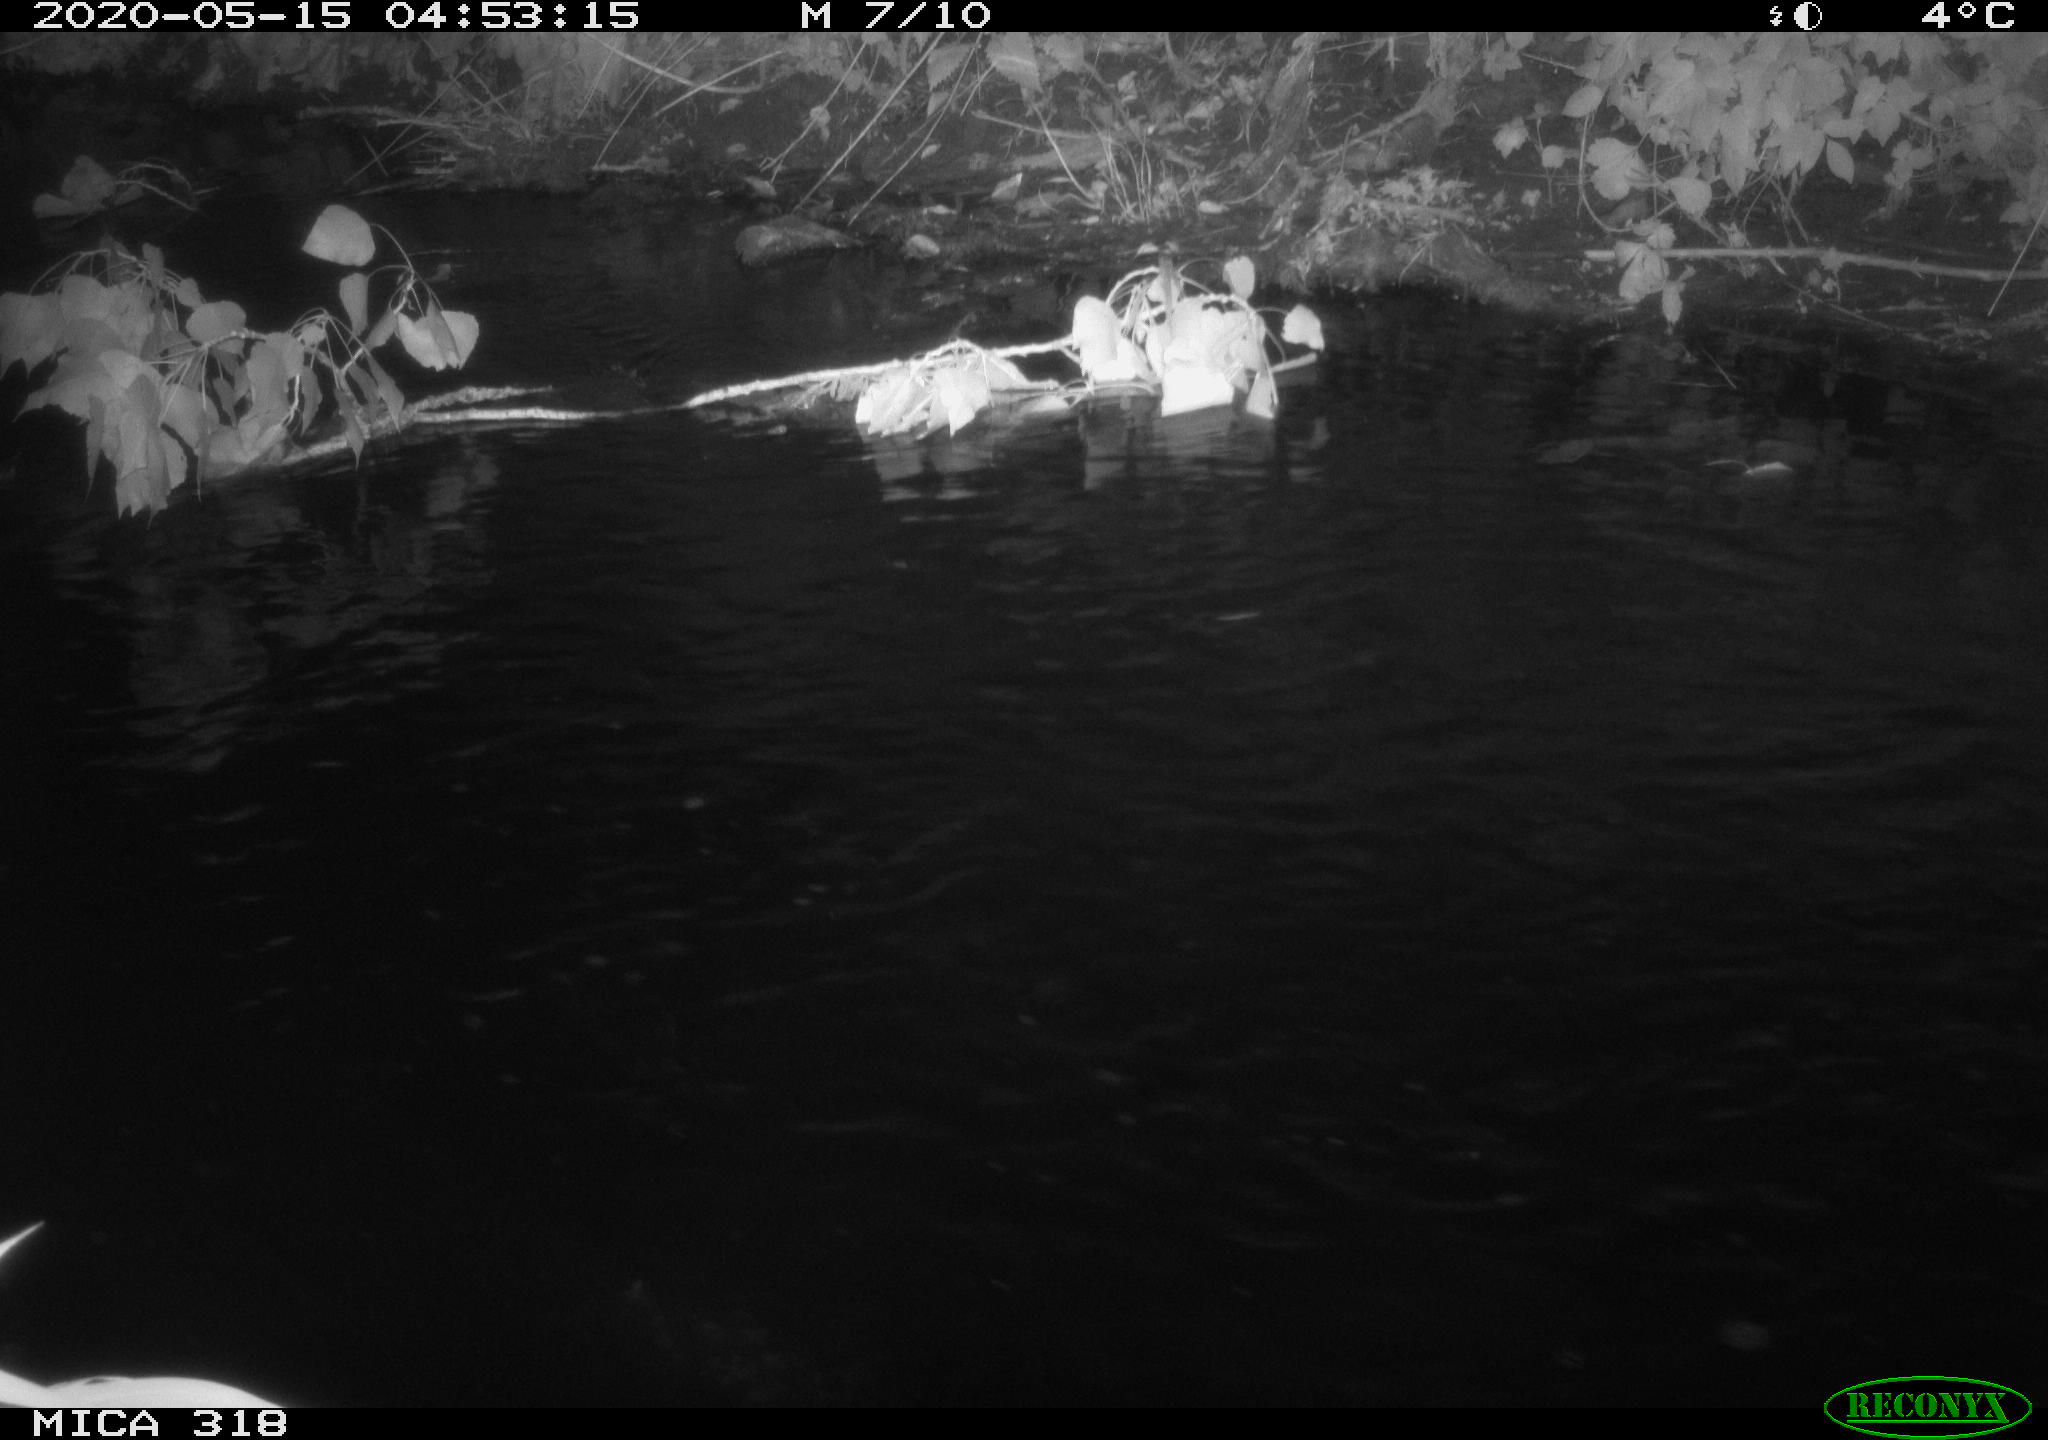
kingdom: Animalia
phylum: Chordata
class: Aves
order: Pelecaniformes
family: Ardeidae
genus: Ardea
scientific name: Ardea cinerea
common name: Grey heron
